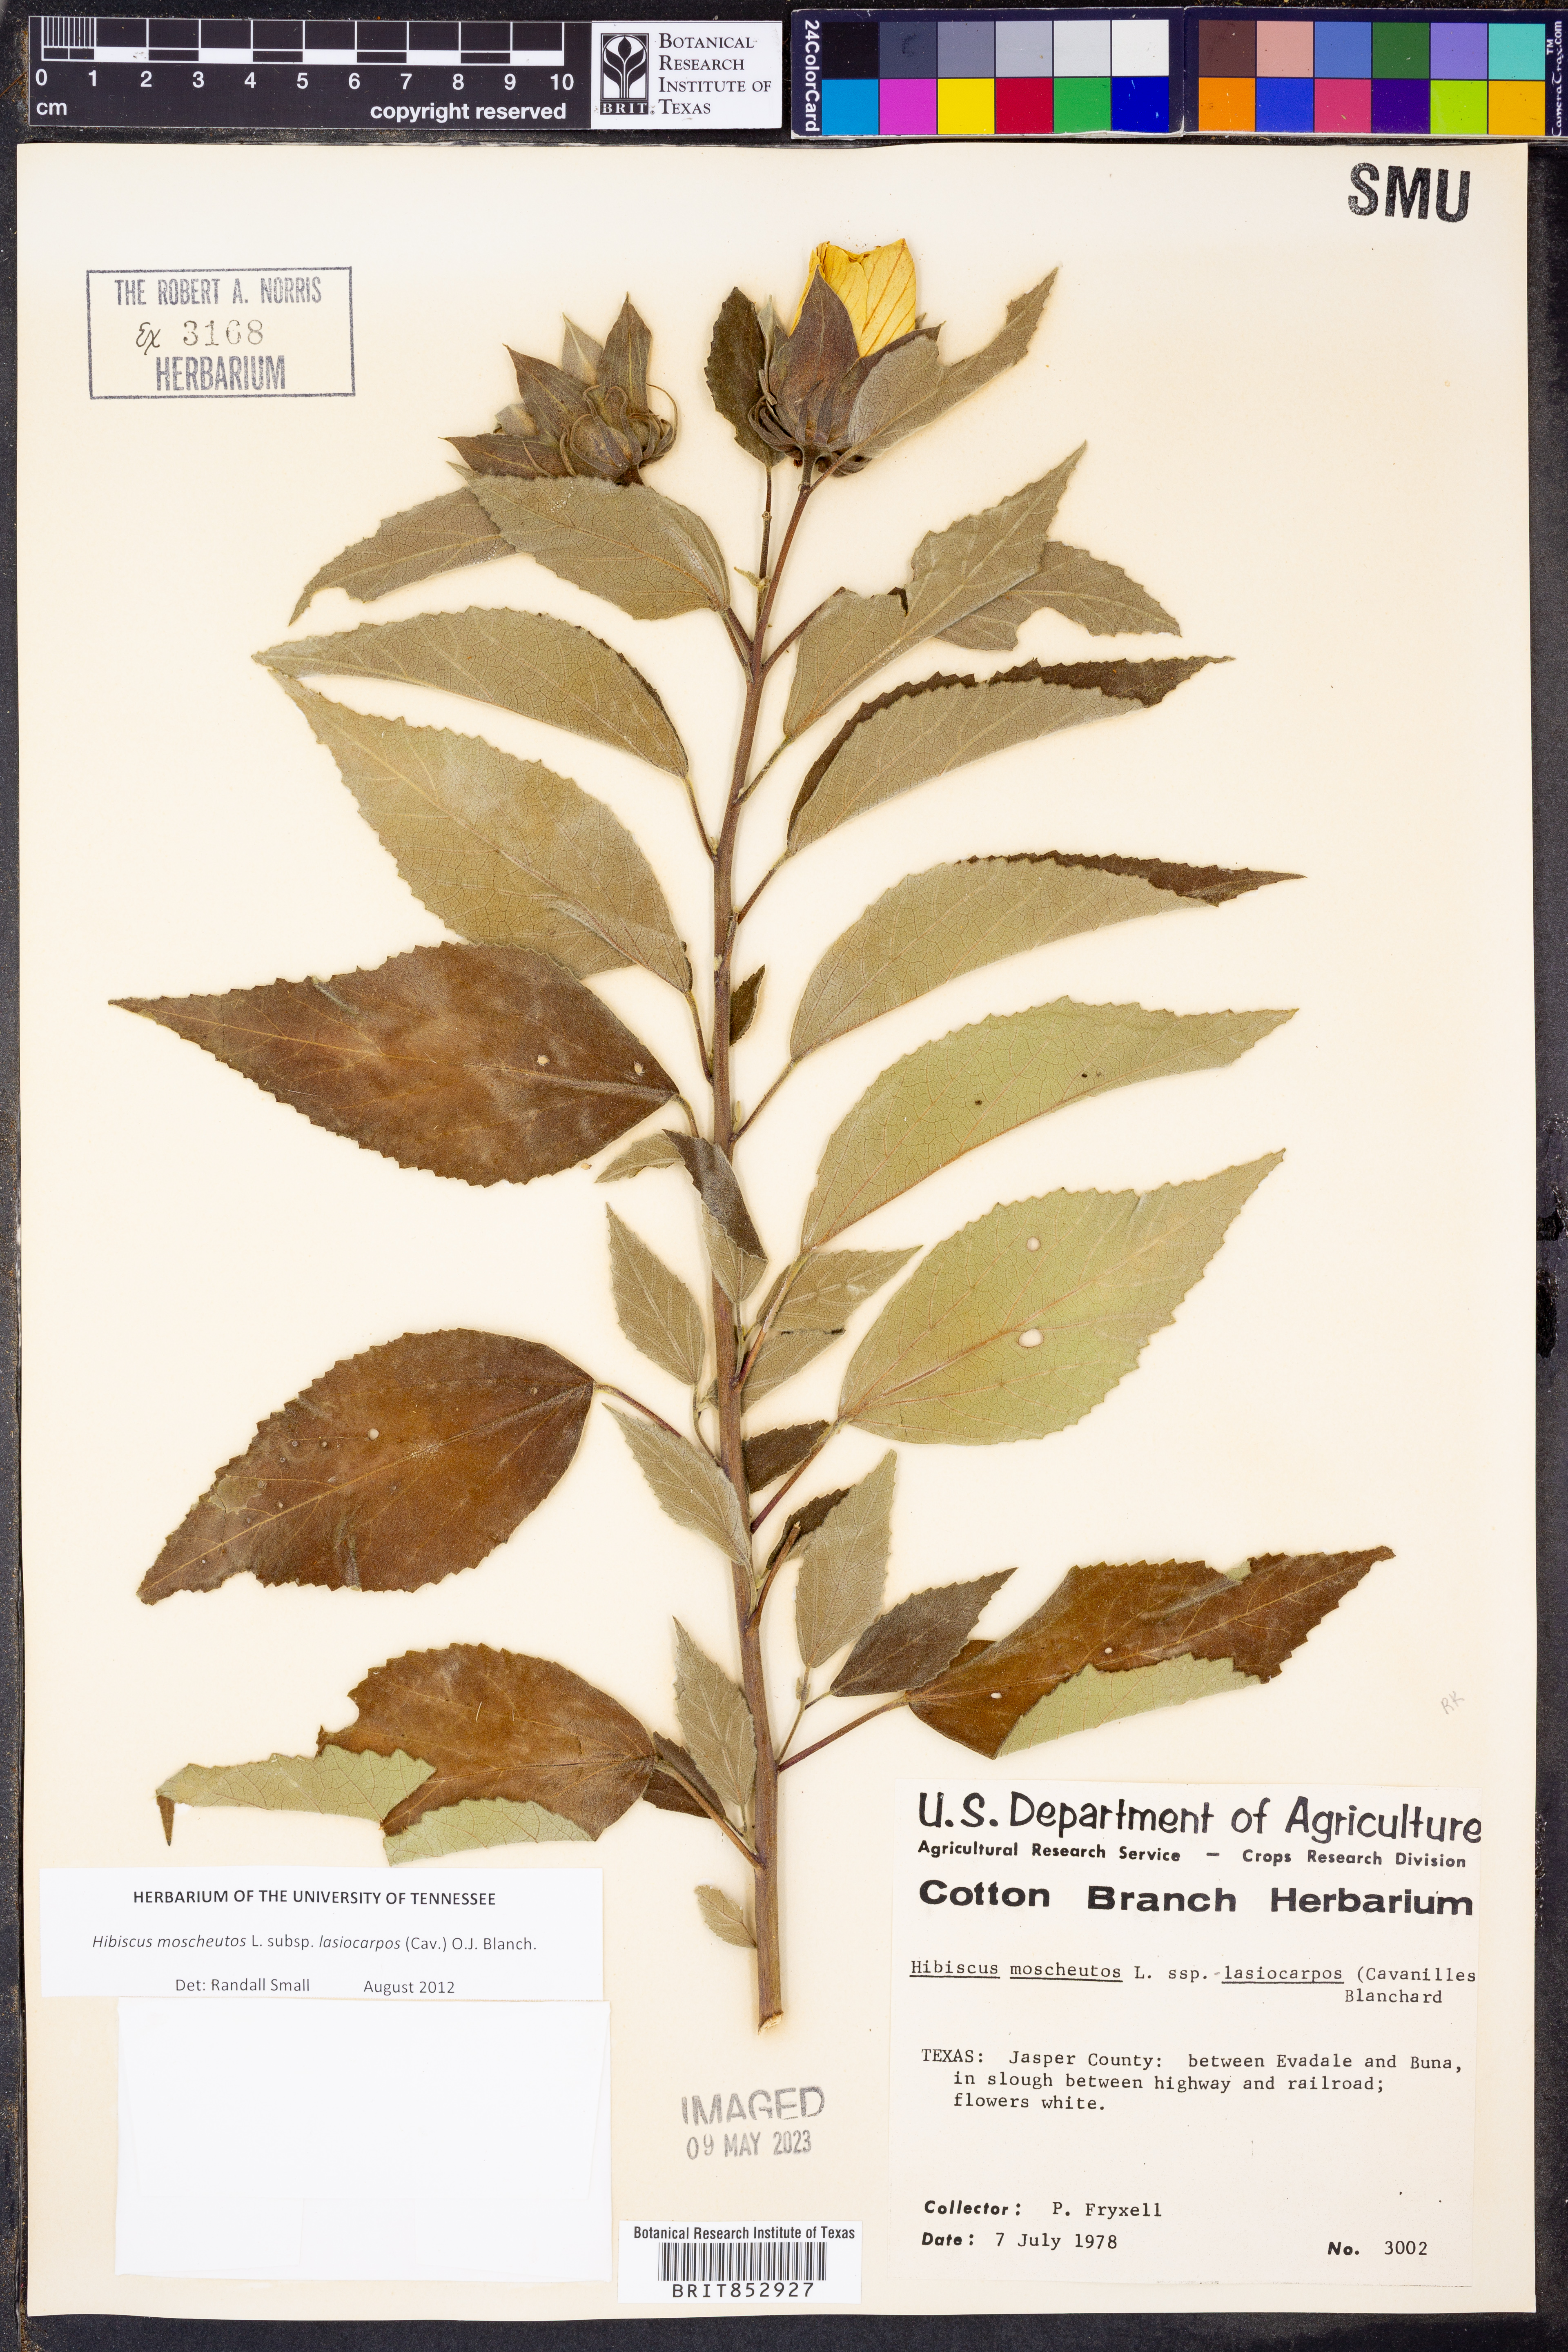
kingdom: Plantae
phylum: Tracheophyta
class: Magnoliopsida
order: Malvales
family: Malvaceae
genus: Hibiscus
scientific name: Hibiscus moscheutos
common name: Common rose-mallow
